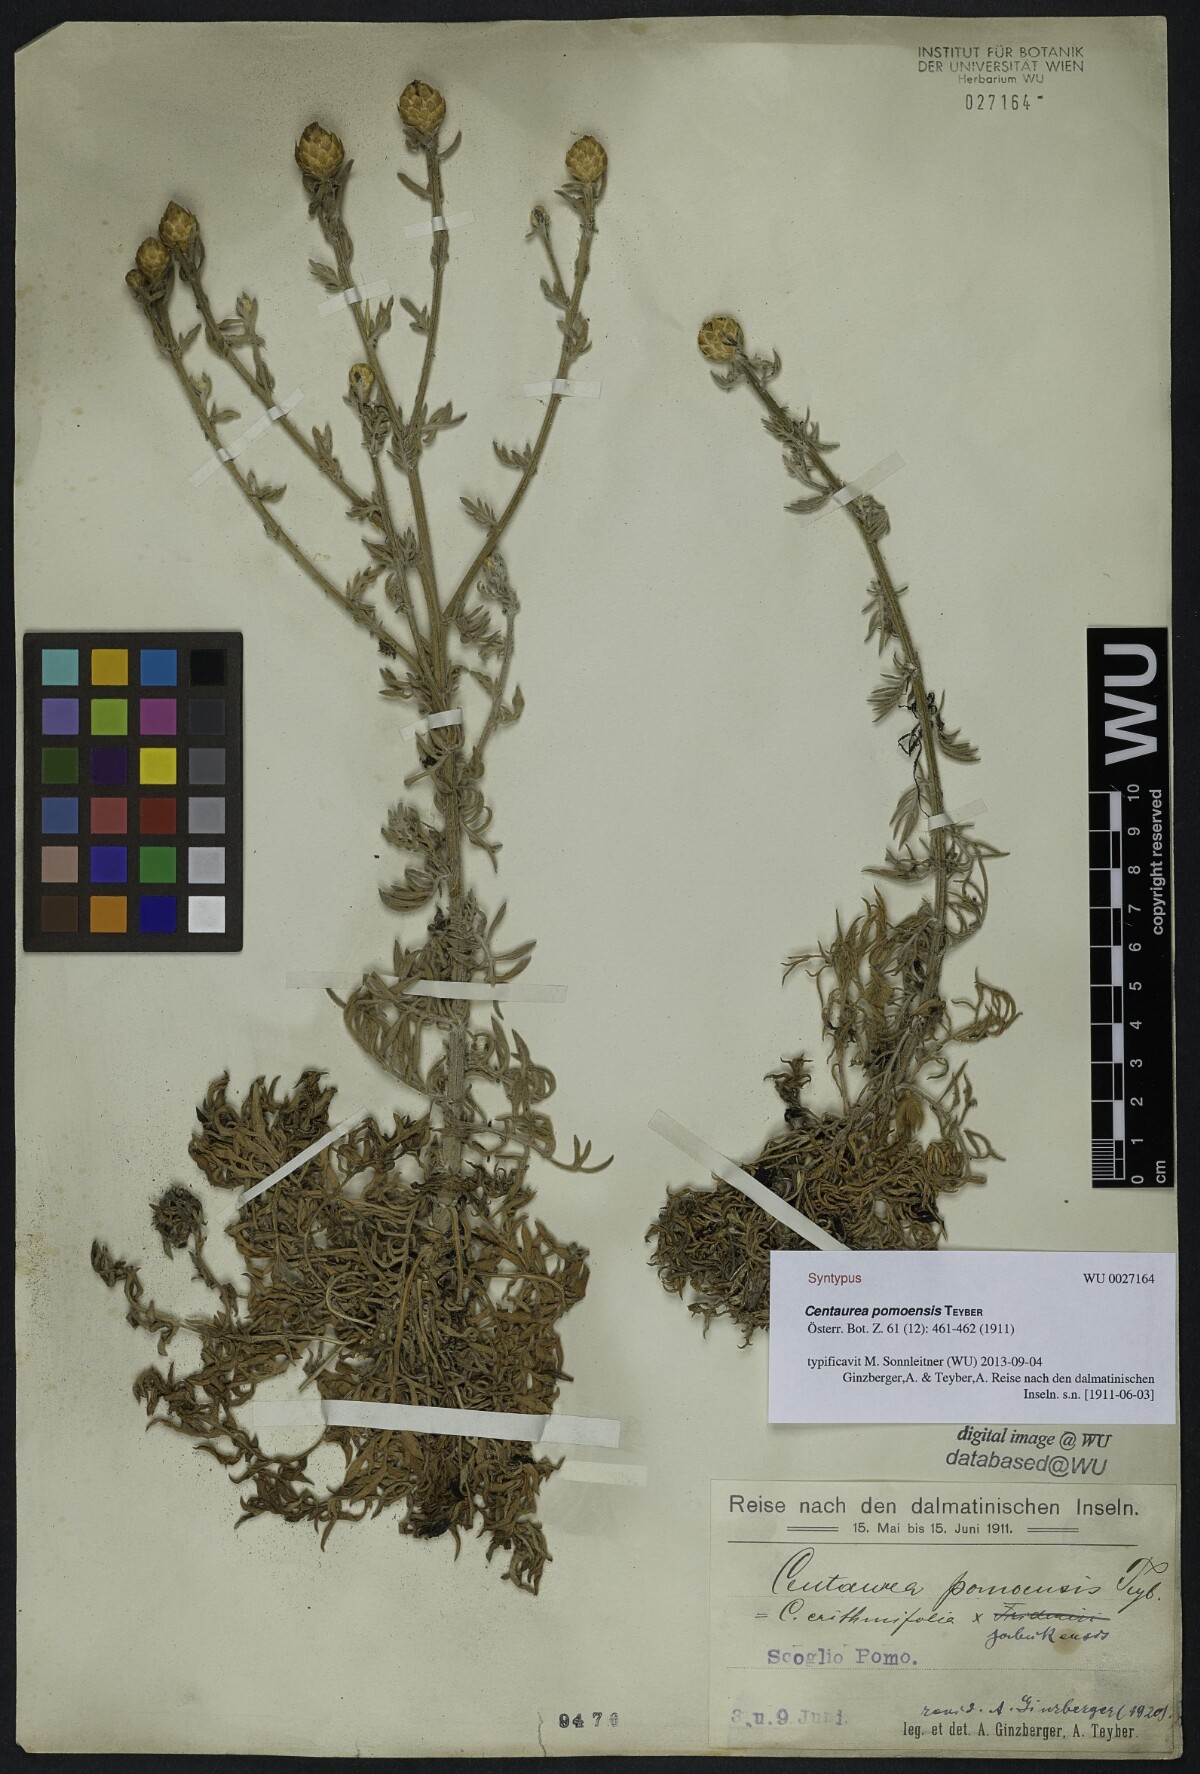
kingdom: Plantae
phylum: Tracheophyta
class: Magnoliopsida
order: Asterales
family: Asteraceae
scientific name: Asteraceae
